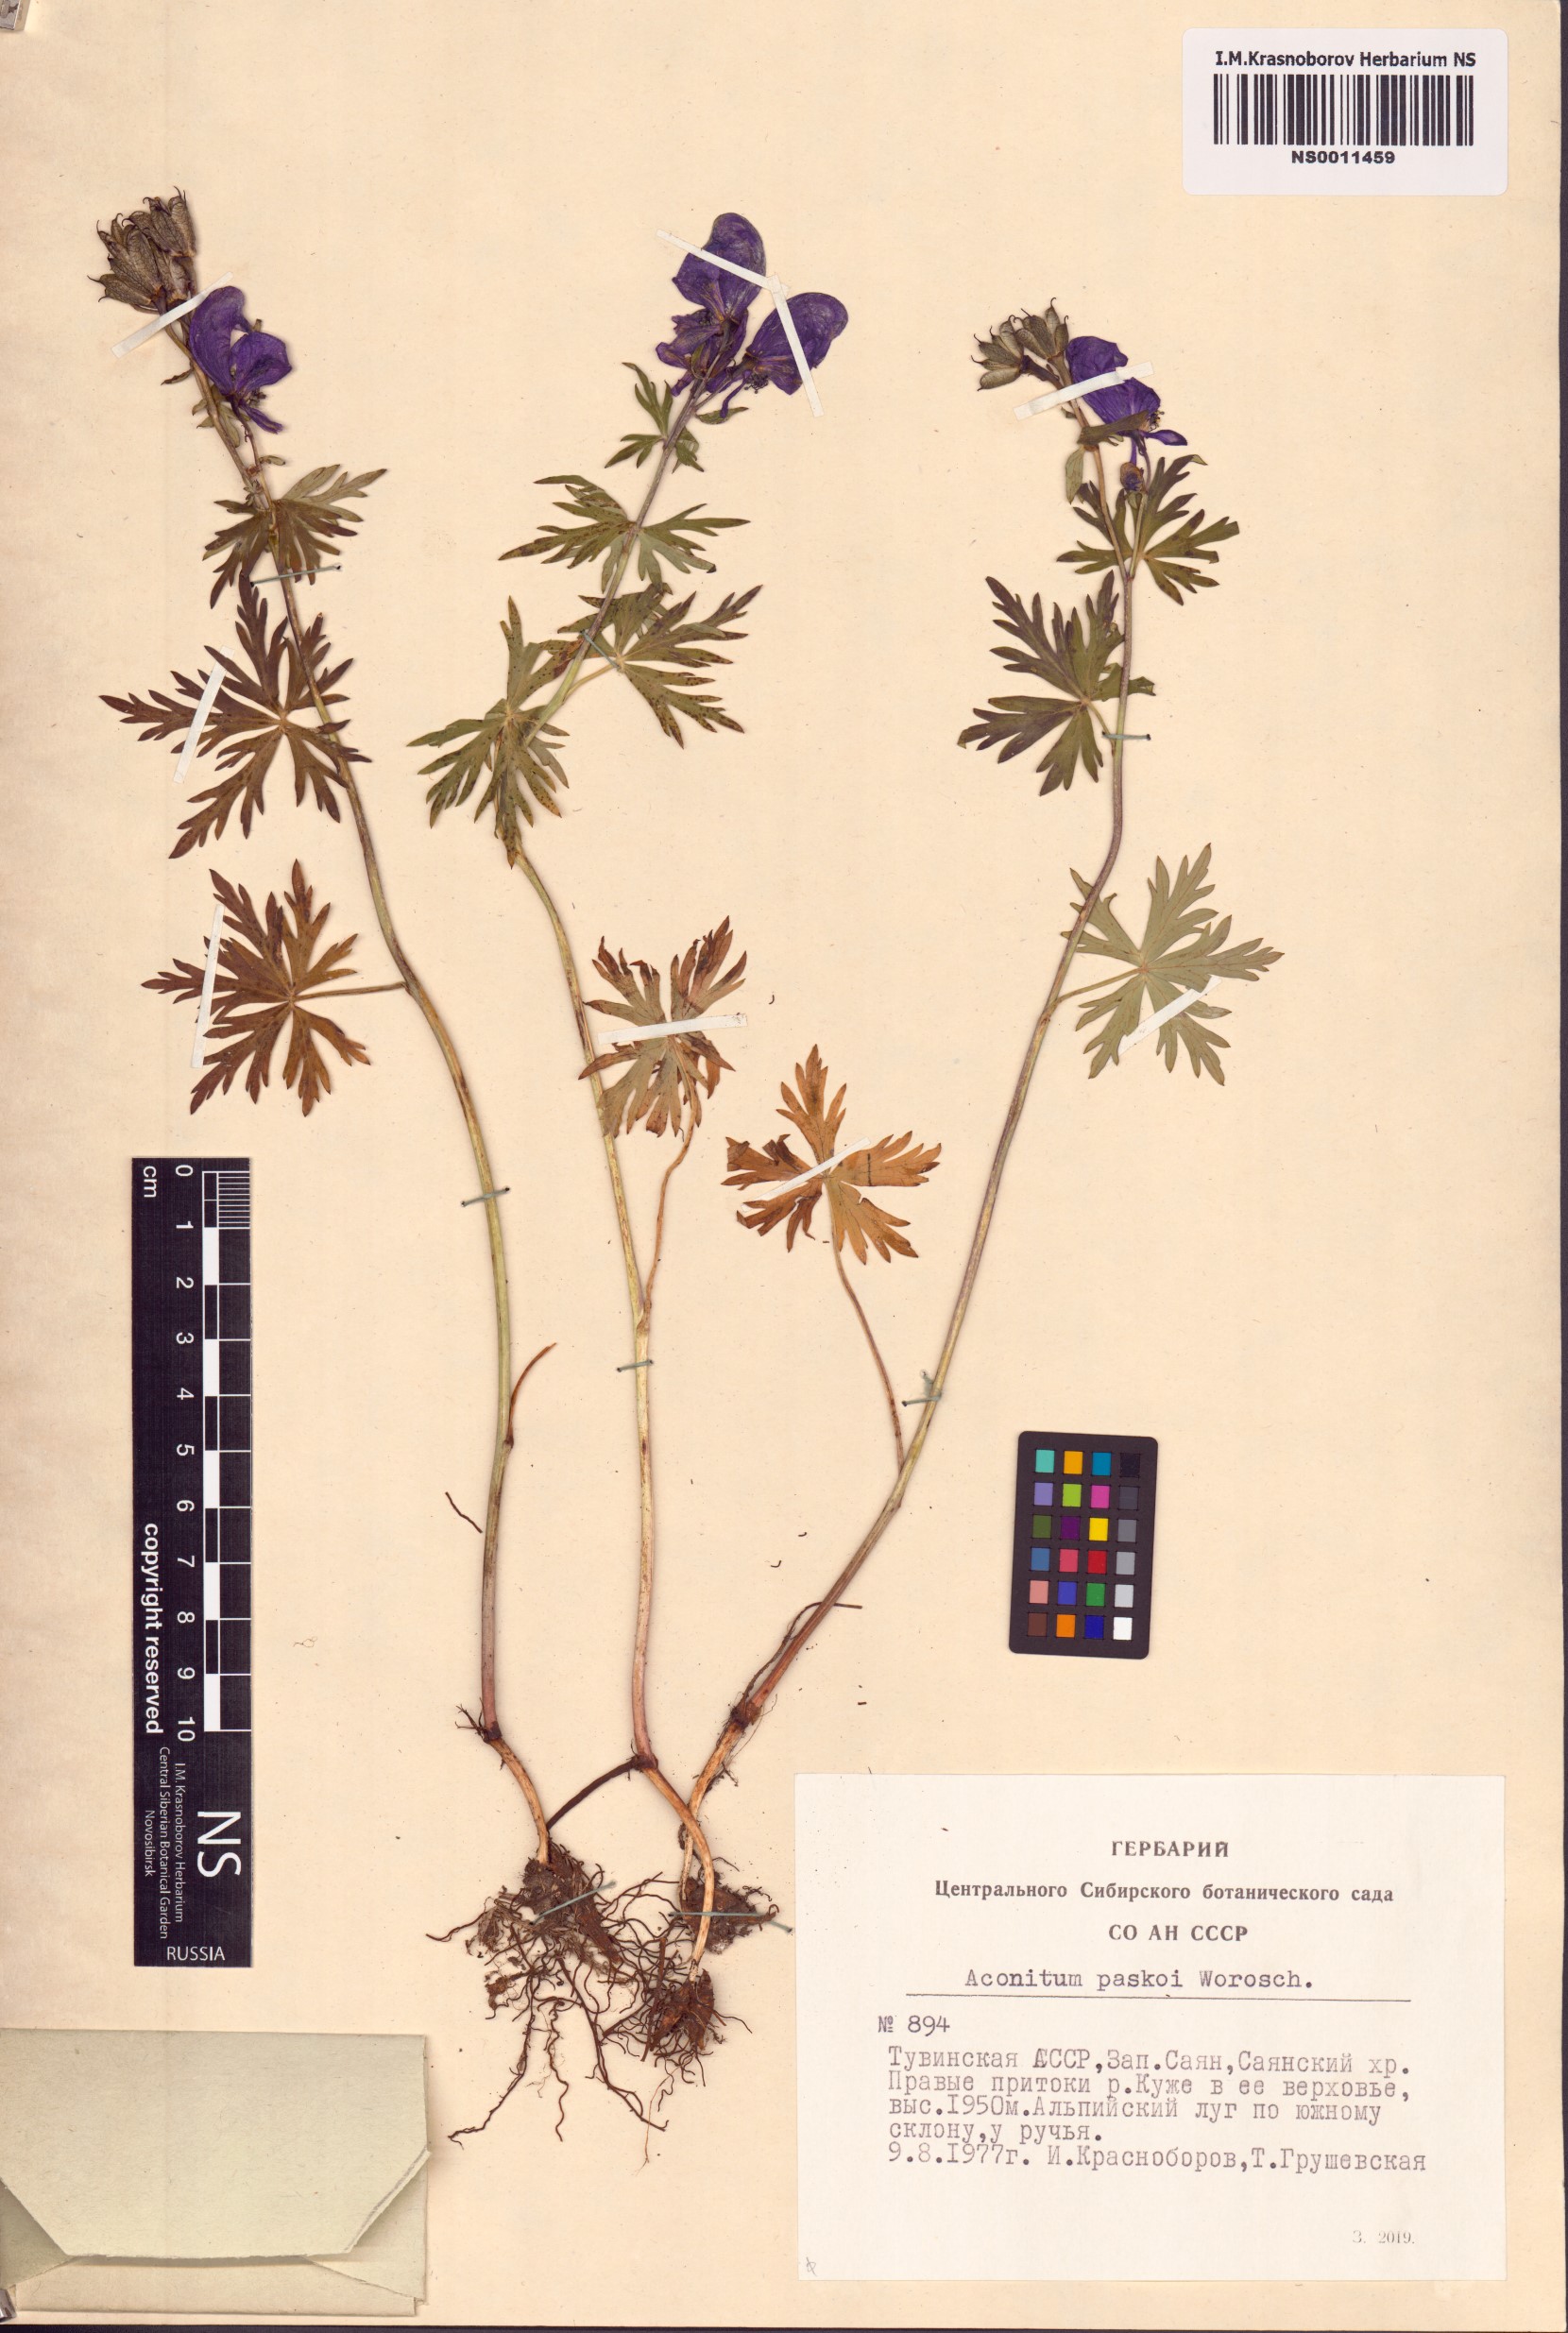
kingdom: Plantae
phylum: Tracheophyta
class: Magnoliopsida
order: Ranunculales
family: Ranunculaceae
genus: Aconitum
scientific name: Aconitum pascoi
